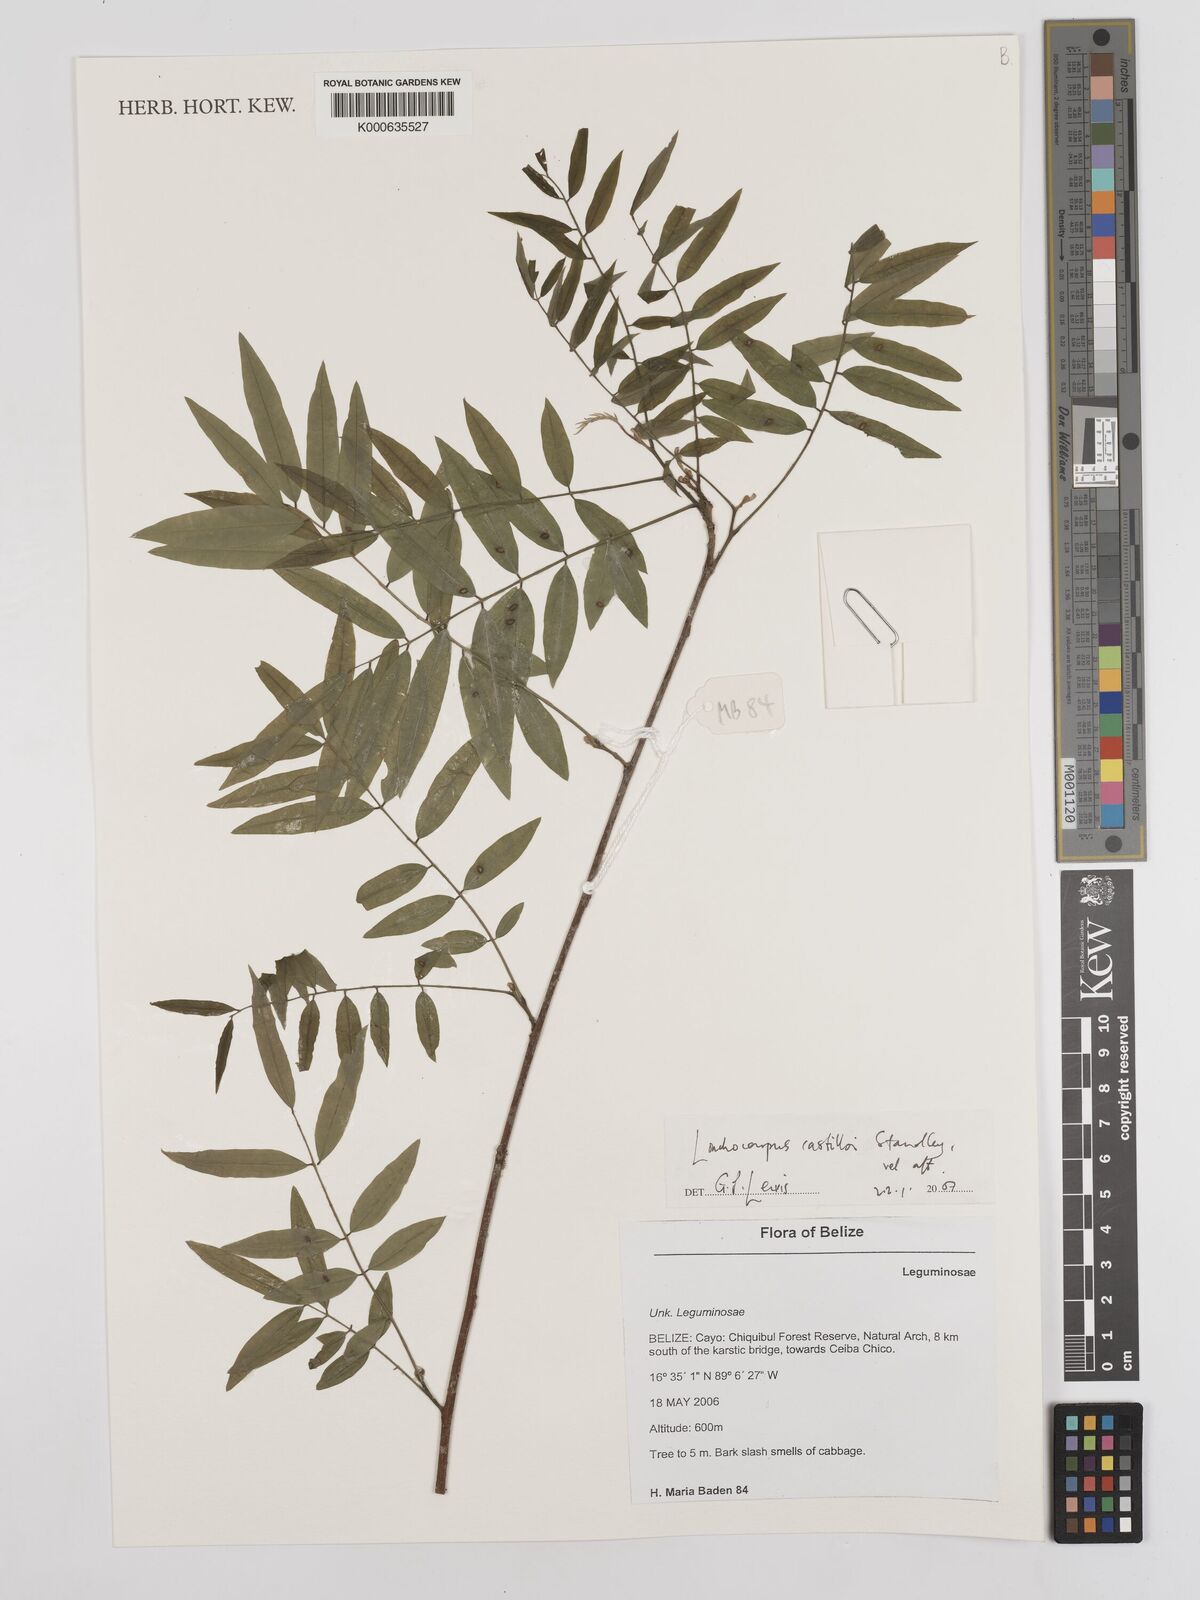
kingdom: Plantae
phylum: Tracheophyta
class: Magnoliopsida
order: Fabales
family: Fabaceae
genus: Lonchocarpus
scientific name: Lonchocarpus castilloi
